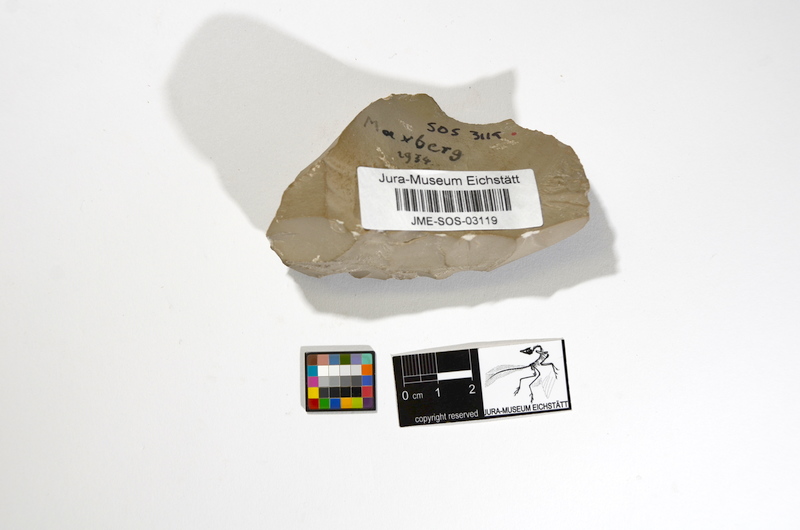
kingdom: Animalia
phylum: Chordata
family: Macrosemiidae
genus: Propterus
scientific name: Propterus elongatus
